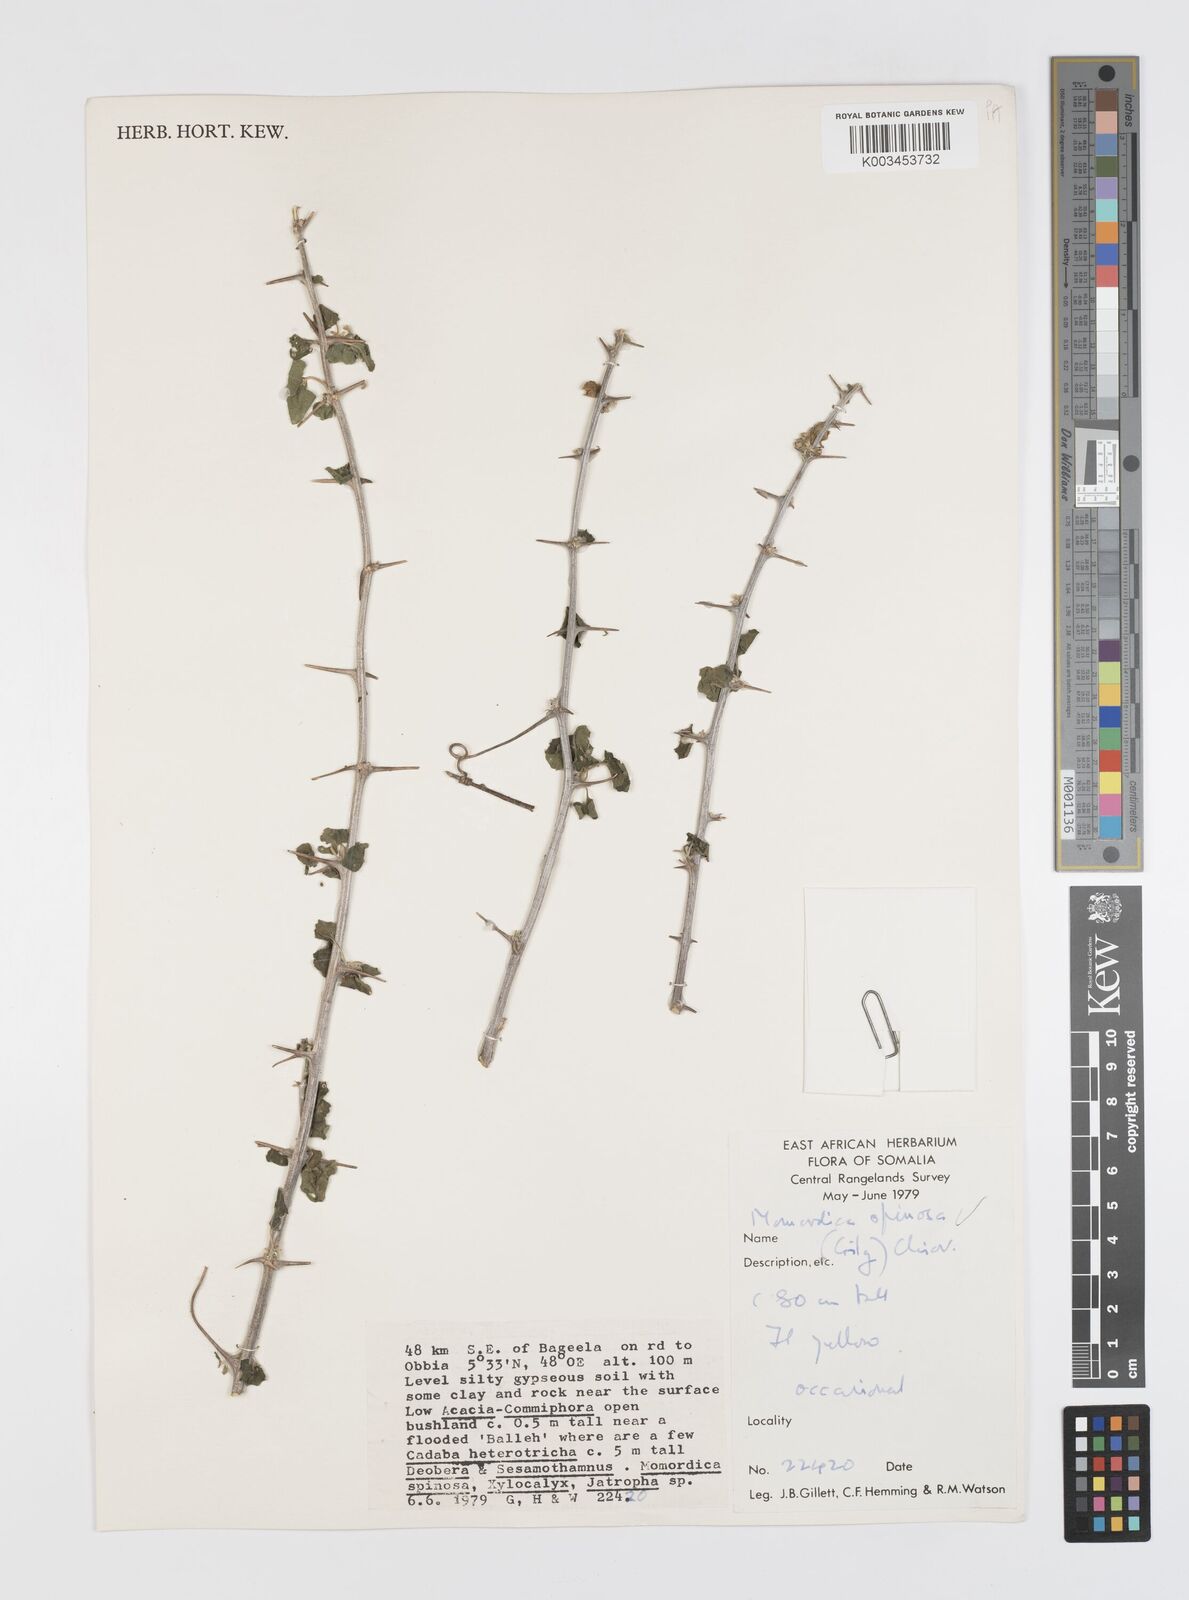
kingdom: Plantae
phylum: Tracheophyta
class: Magnoliopsida
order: Cucurbitales
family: Cucurbitaceae
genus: Momordica
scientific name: Momordica spinosa
